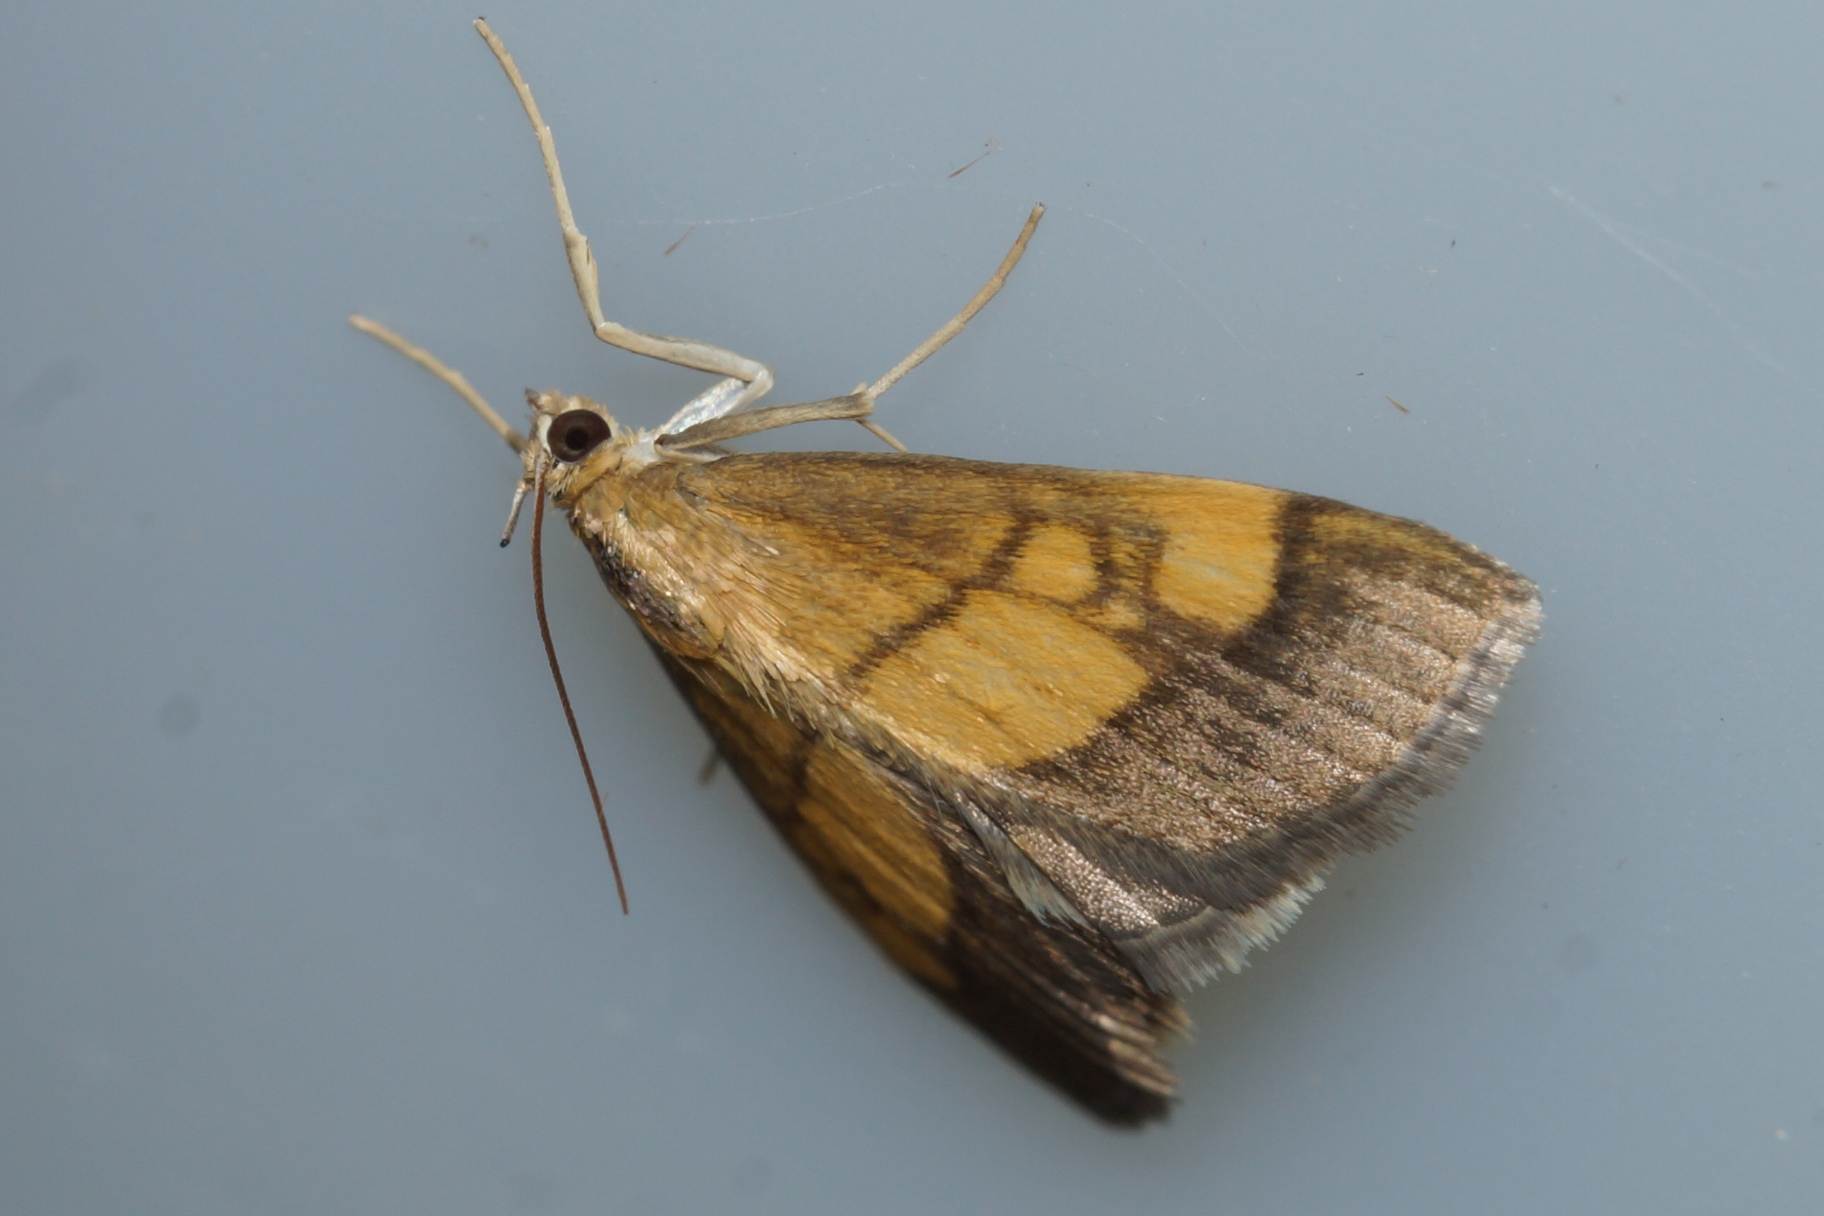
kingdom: Animalia
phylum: Arthropoda
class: Insecta
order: Lepidoptera
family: Crambidae
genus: Evergestis
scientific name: Evergestis limbata
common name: Løgkarsehalvmøl
